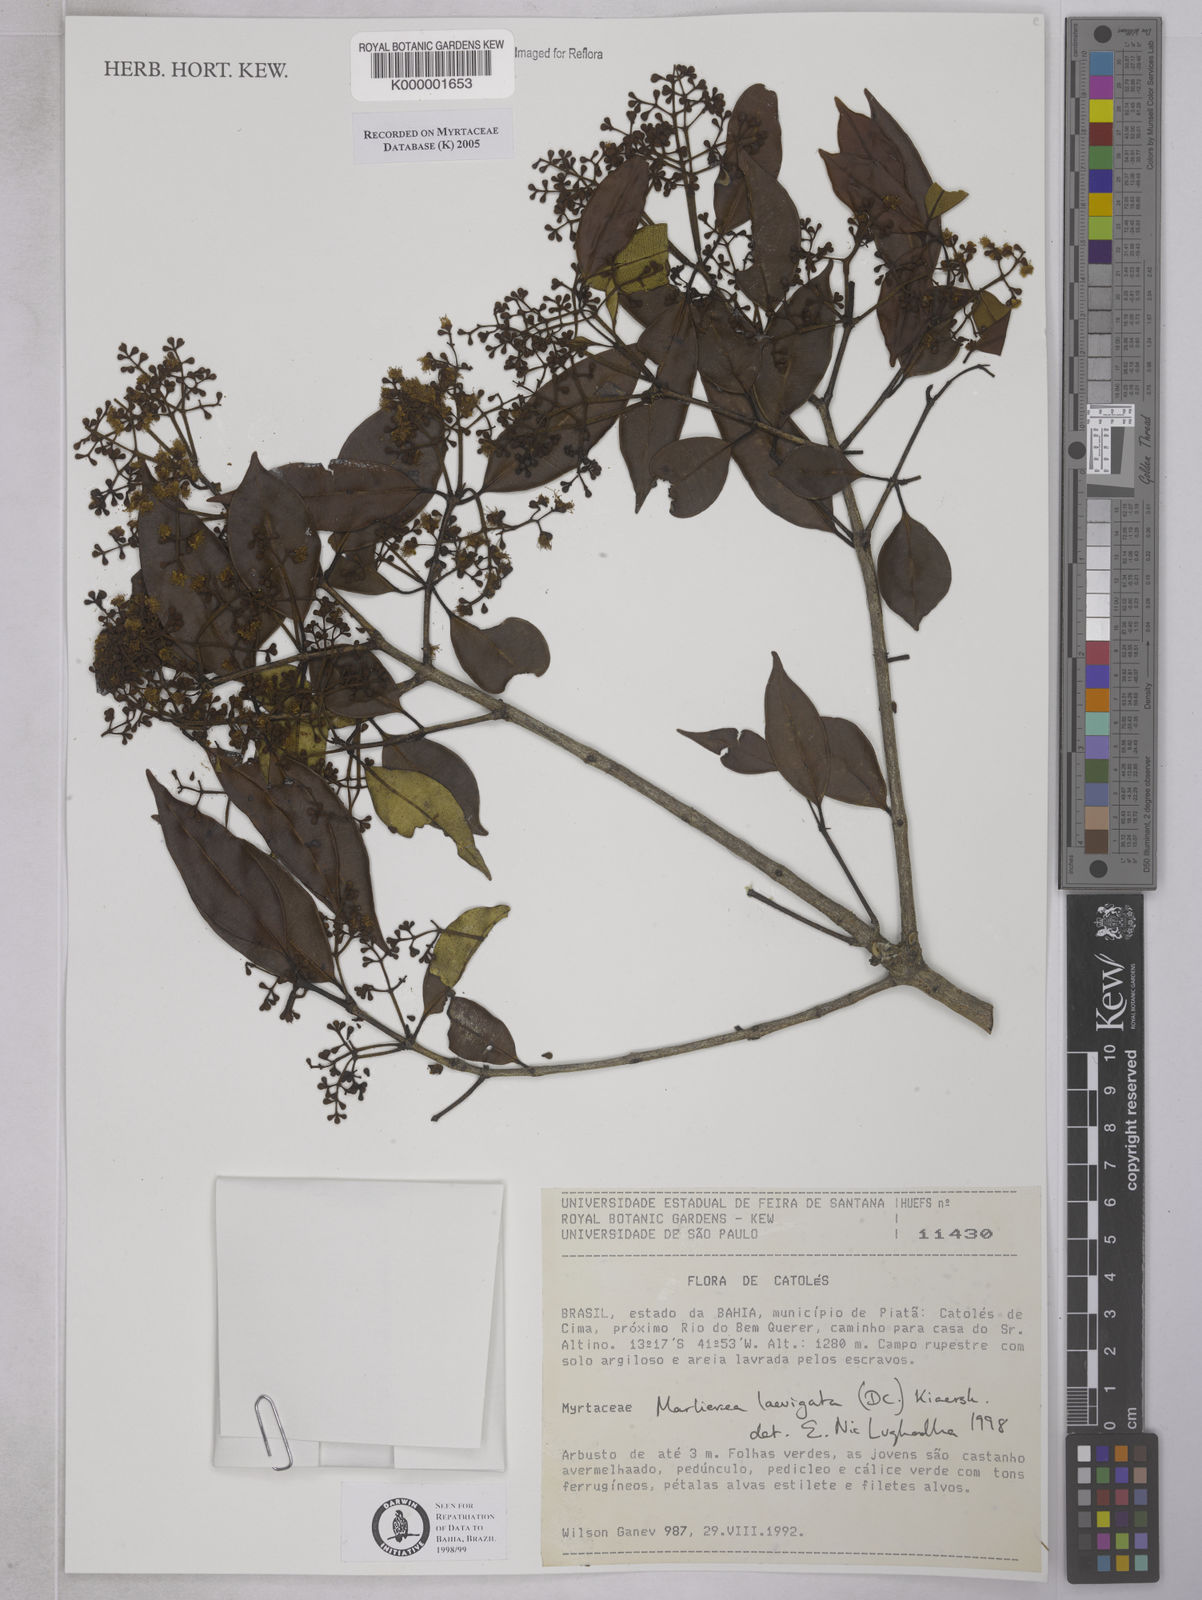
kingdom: Plantae
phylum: Tracheophyta
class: Magnoliopsida
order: Myrtales
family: Myrtaceae
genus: Myrcia
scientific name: Myrcia multipunctata
